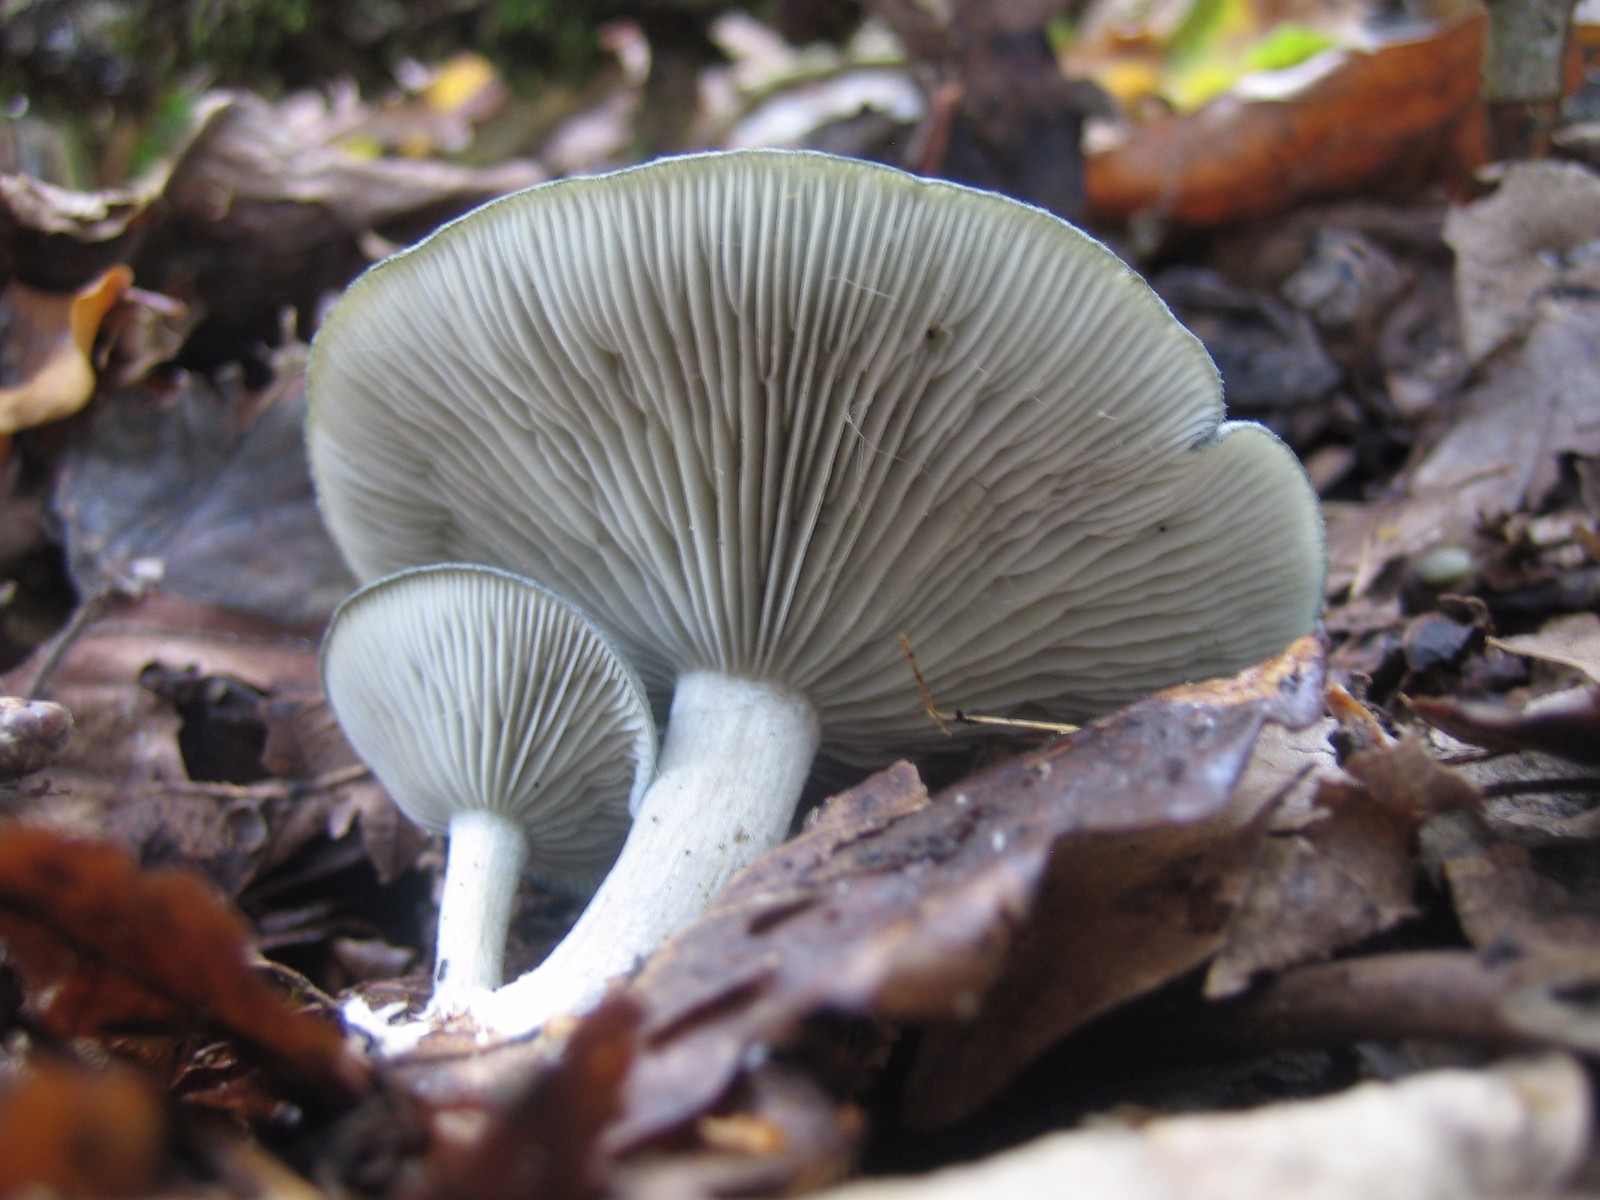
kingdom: Fungi
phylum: Basidiomycota
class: Agaricomycetes
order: Agaricales
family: Tricholomataceae
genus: Clitocybe
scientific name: Clitocybe odora
